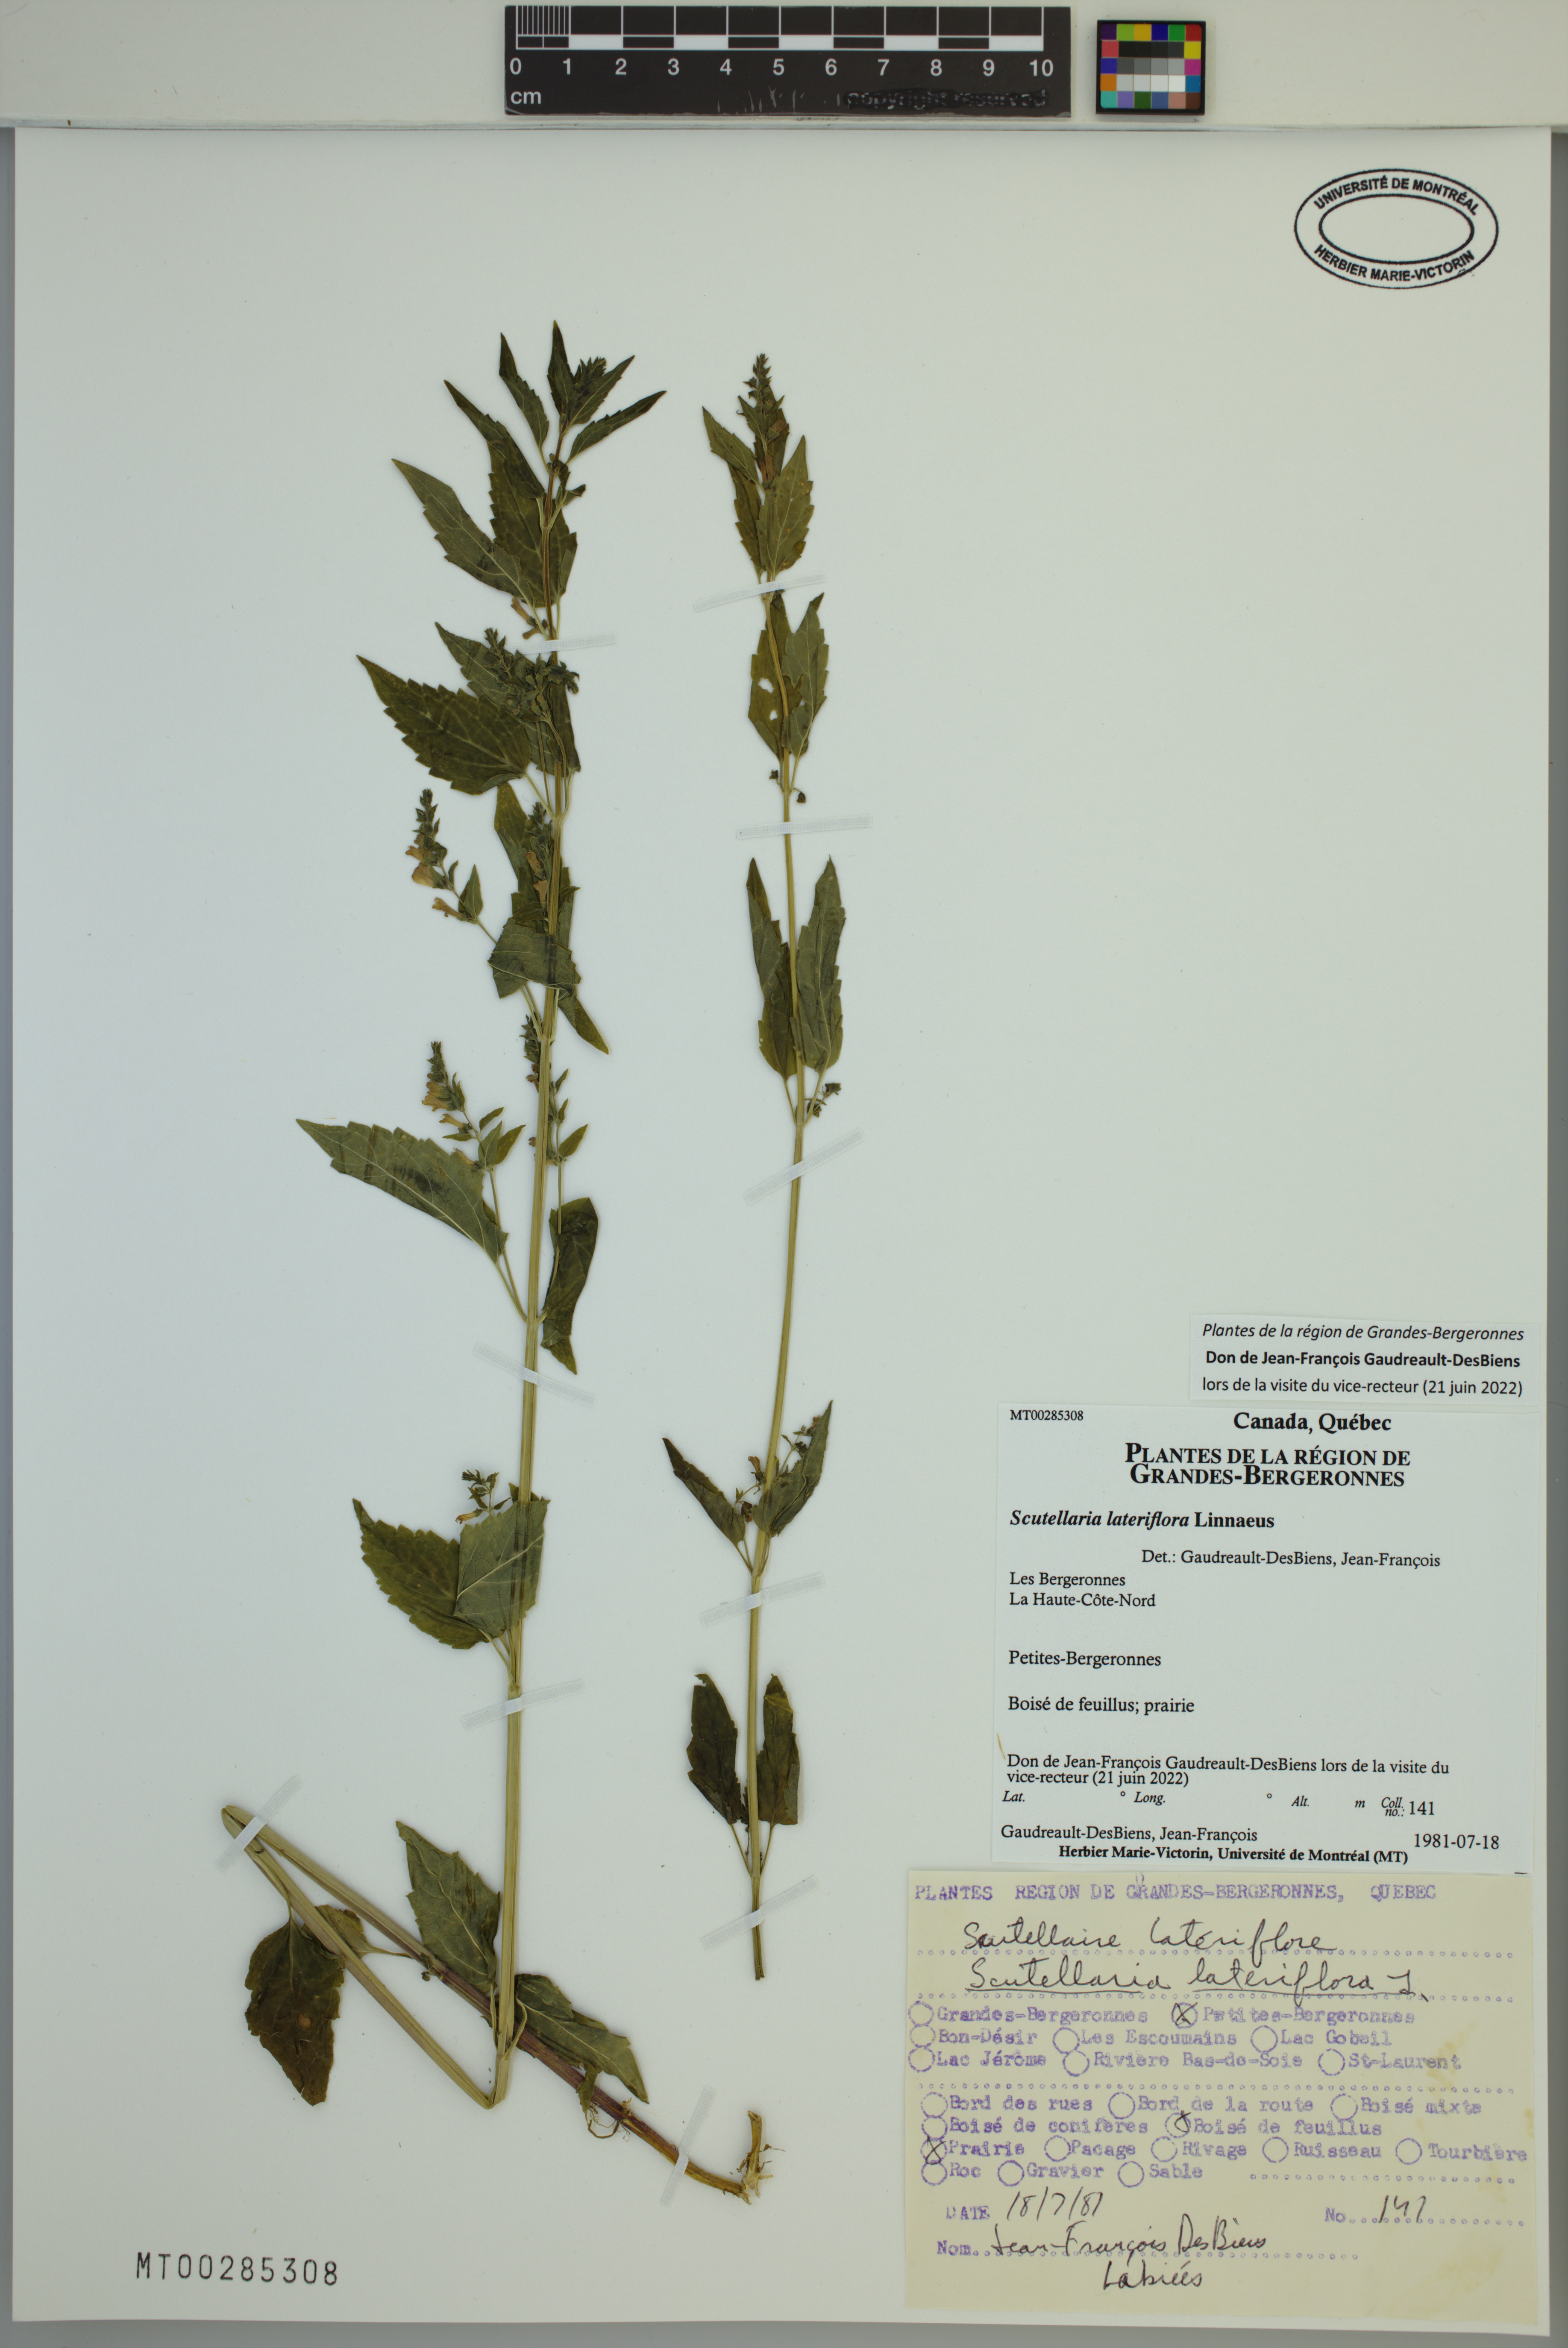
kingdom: Plantae
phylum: Tracheophyta
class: Magnoliopsida
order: Lamiales
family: Lamiaceae
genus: Scutellaria
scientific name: Scutellaria lateriflora
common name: Blue skullcap
